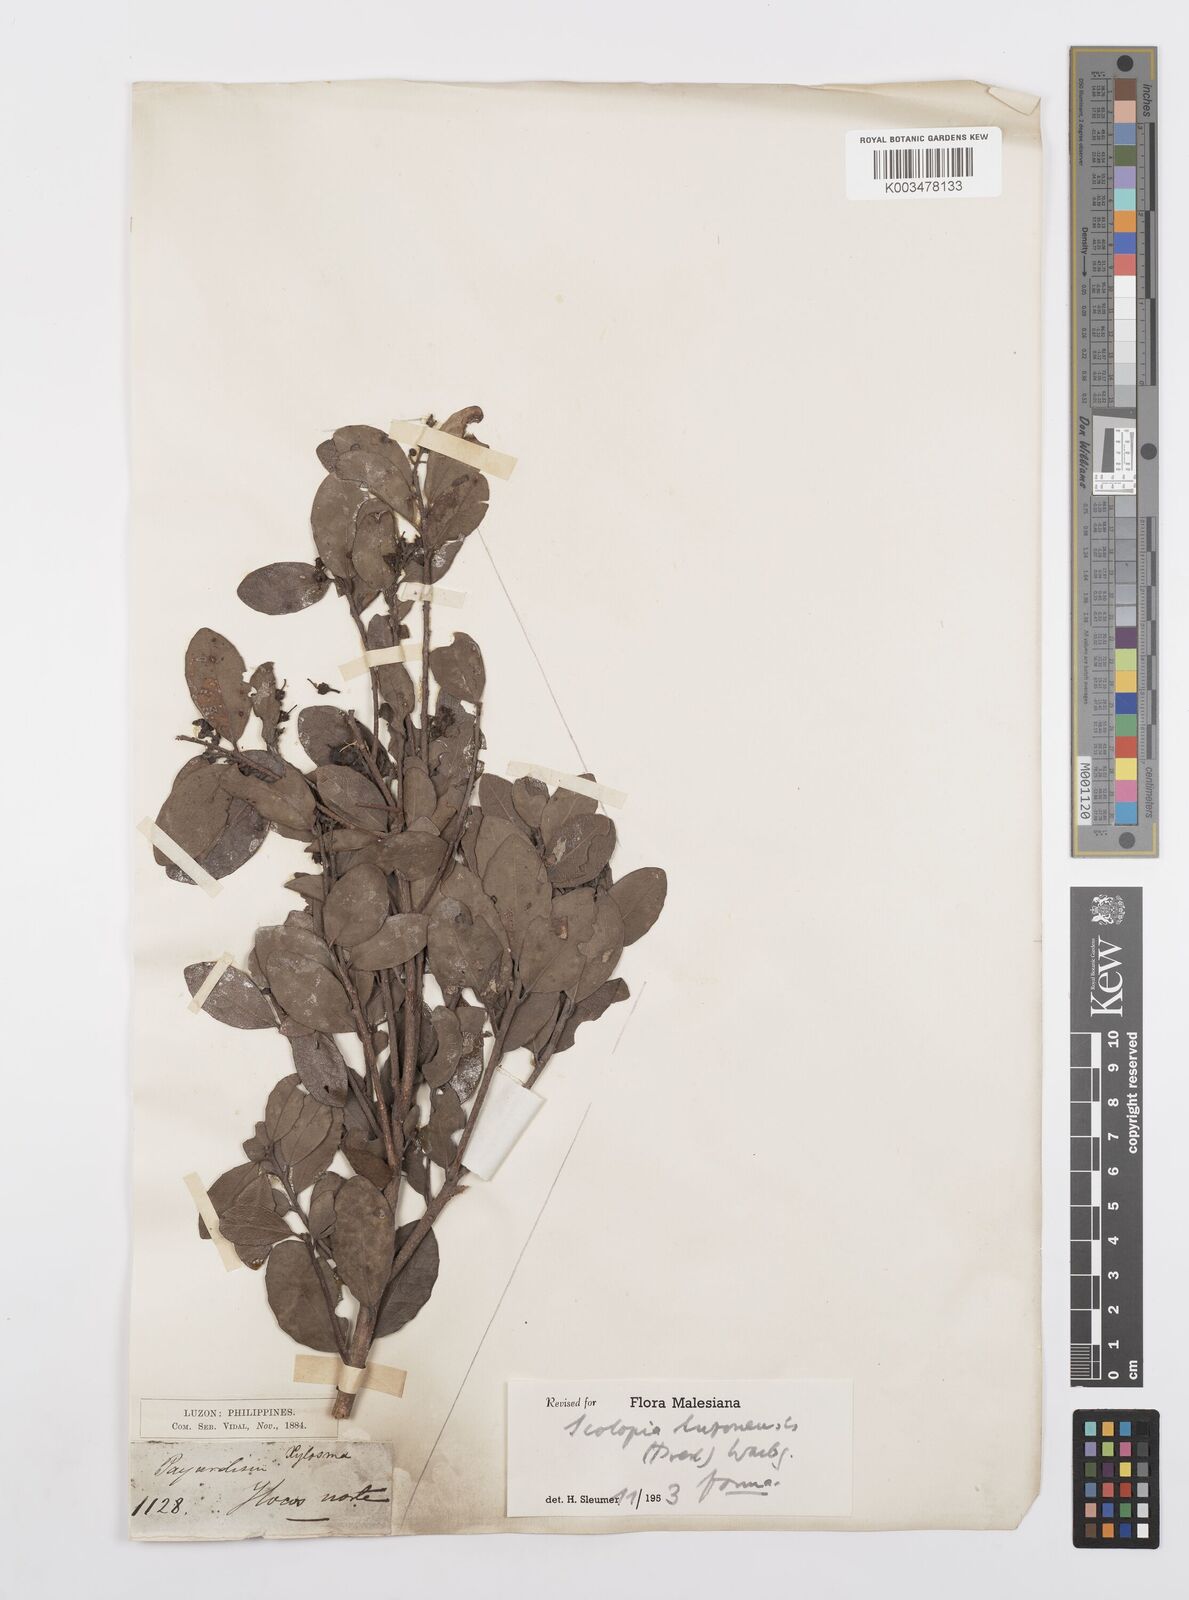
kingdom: Plantae
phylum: Tracheophyta
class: Magnoliopsida
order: Malpighiales
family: Salicaceae
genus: Scolopia
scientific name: Scolopia luzonensis
